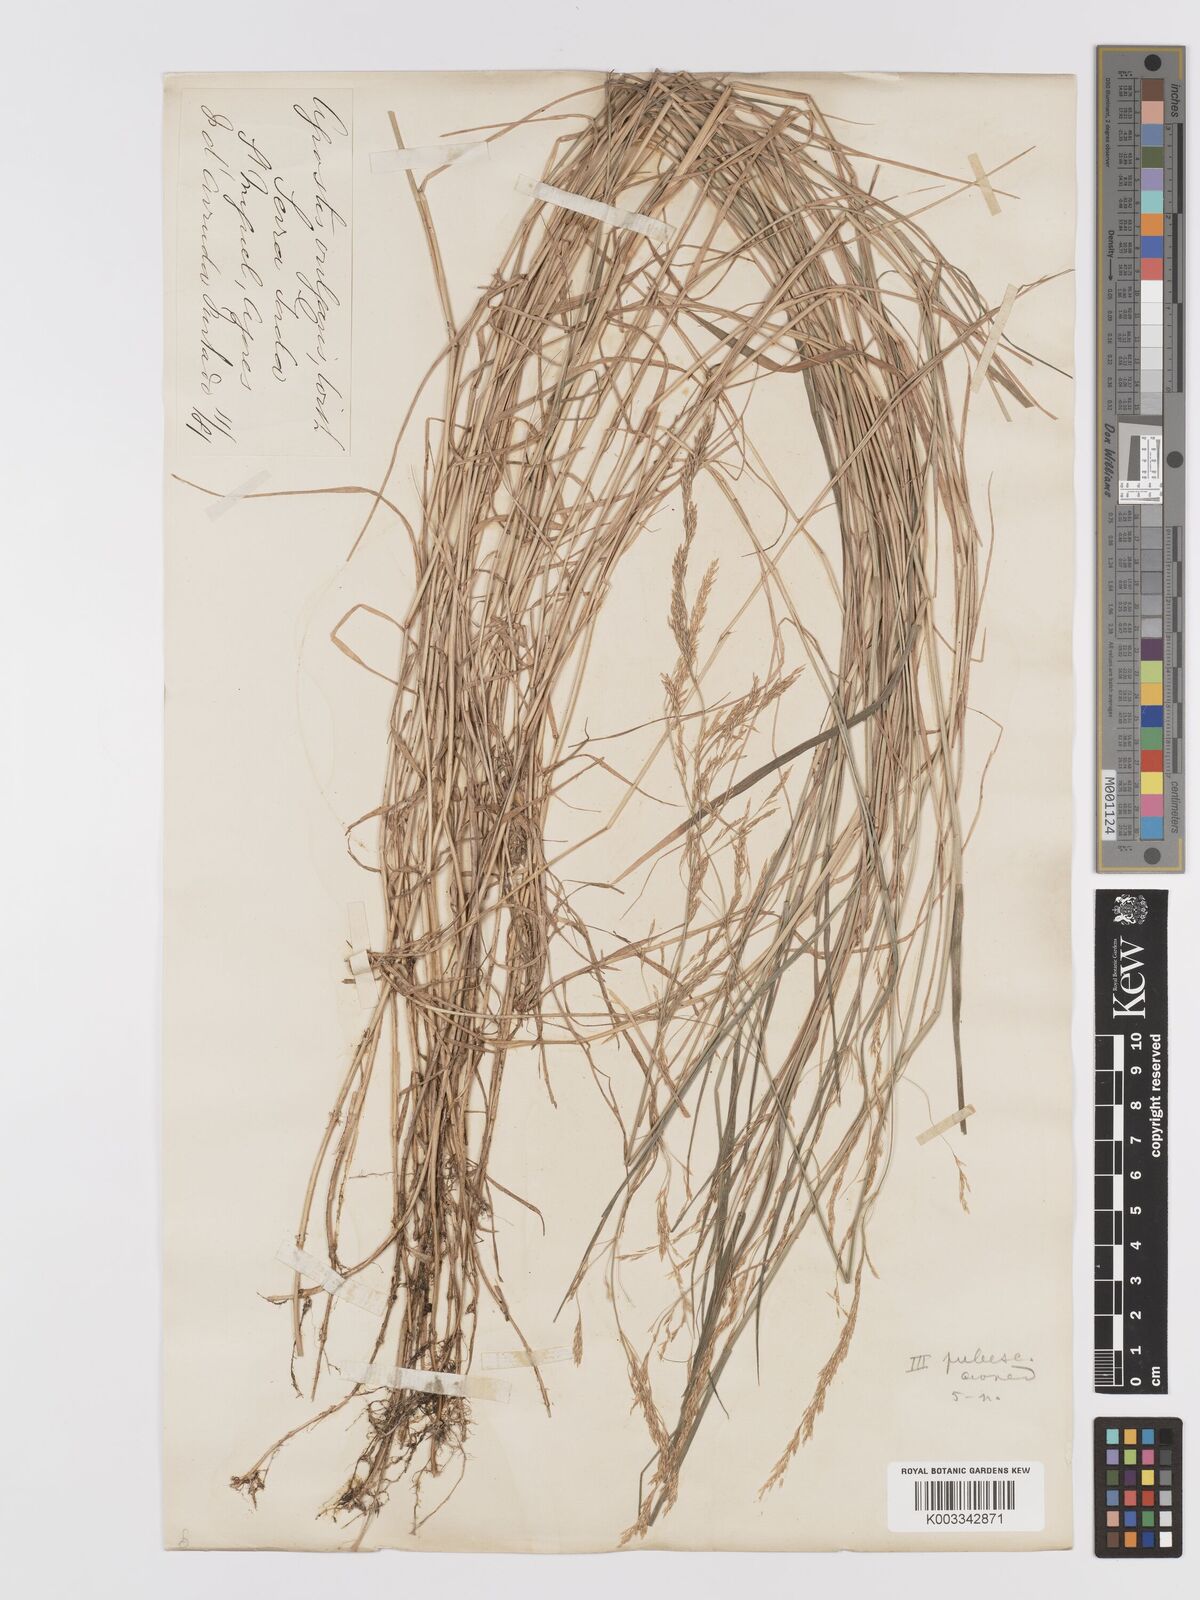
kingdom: Plantae
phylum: Tracheophyta
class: Liliopsida
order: Poales
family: Poaceae
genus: Agrostis
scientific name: Agrostis capillaris
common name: Colonial bentgrass
